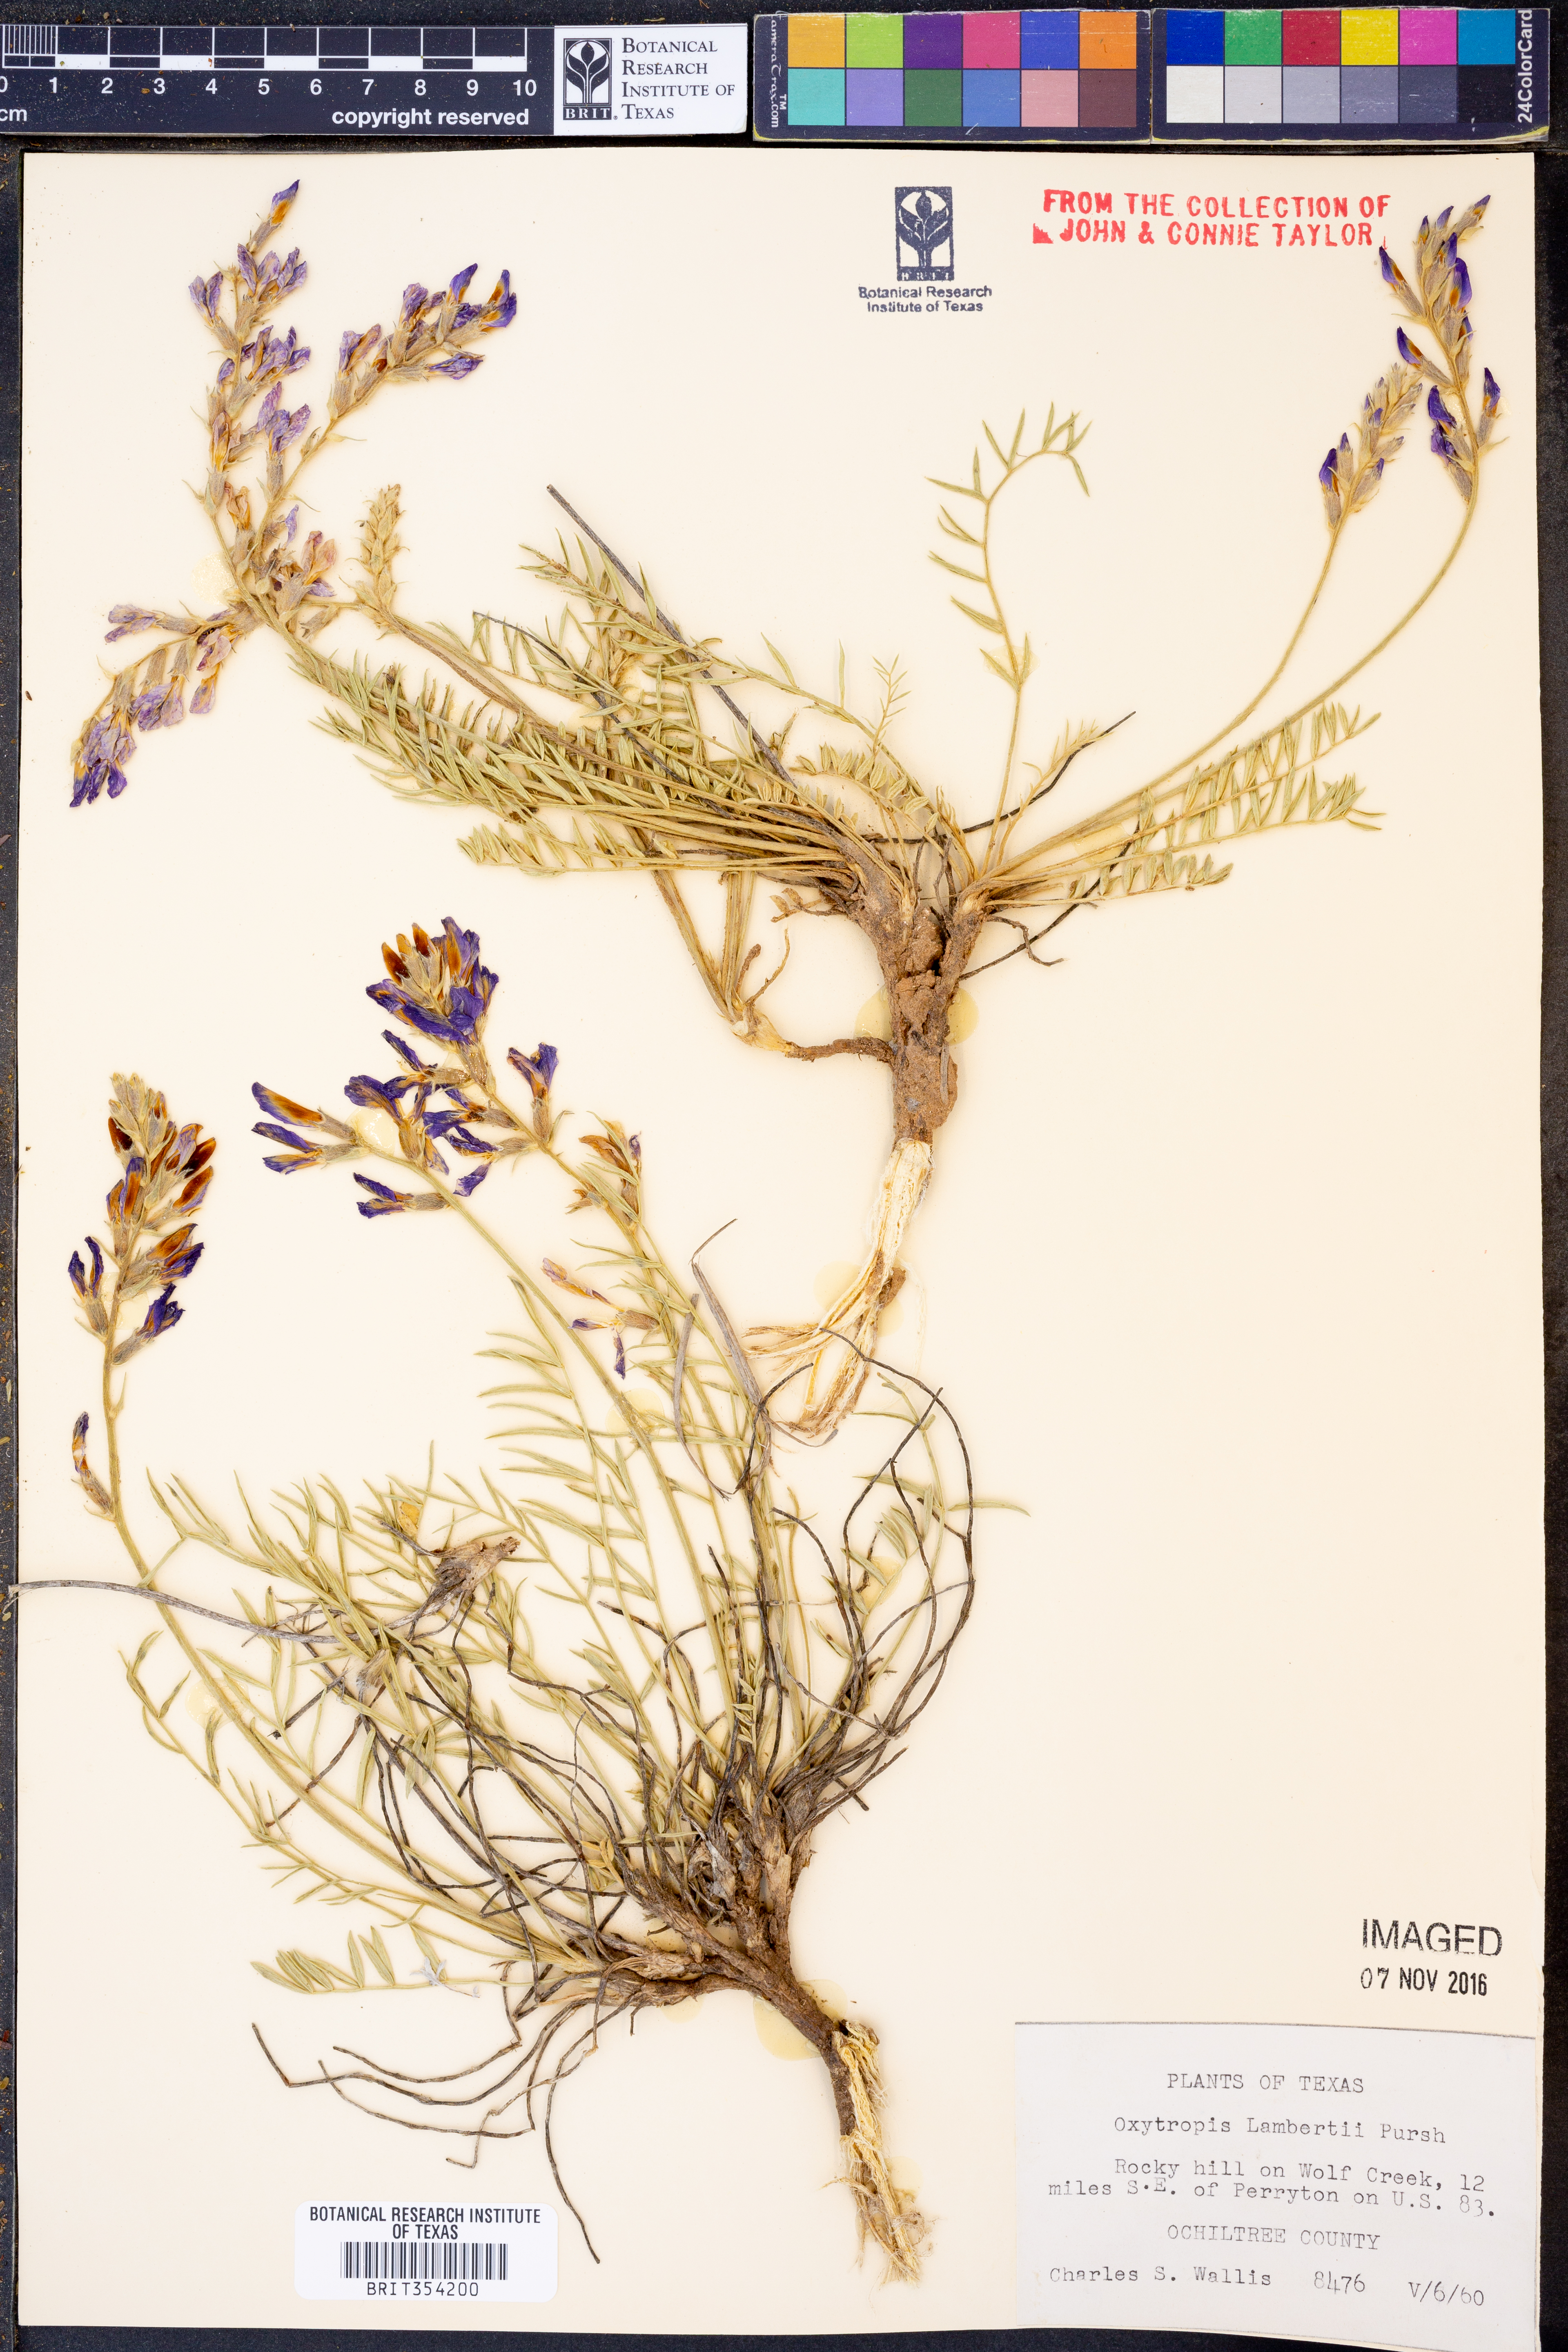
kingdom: Plantae
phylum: Tracheophyta
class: Magnoliopsida
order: Fabales
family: Fabaceae
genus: Oxytropis
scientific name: Oxytropis lambertii
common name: Purple locoweed
